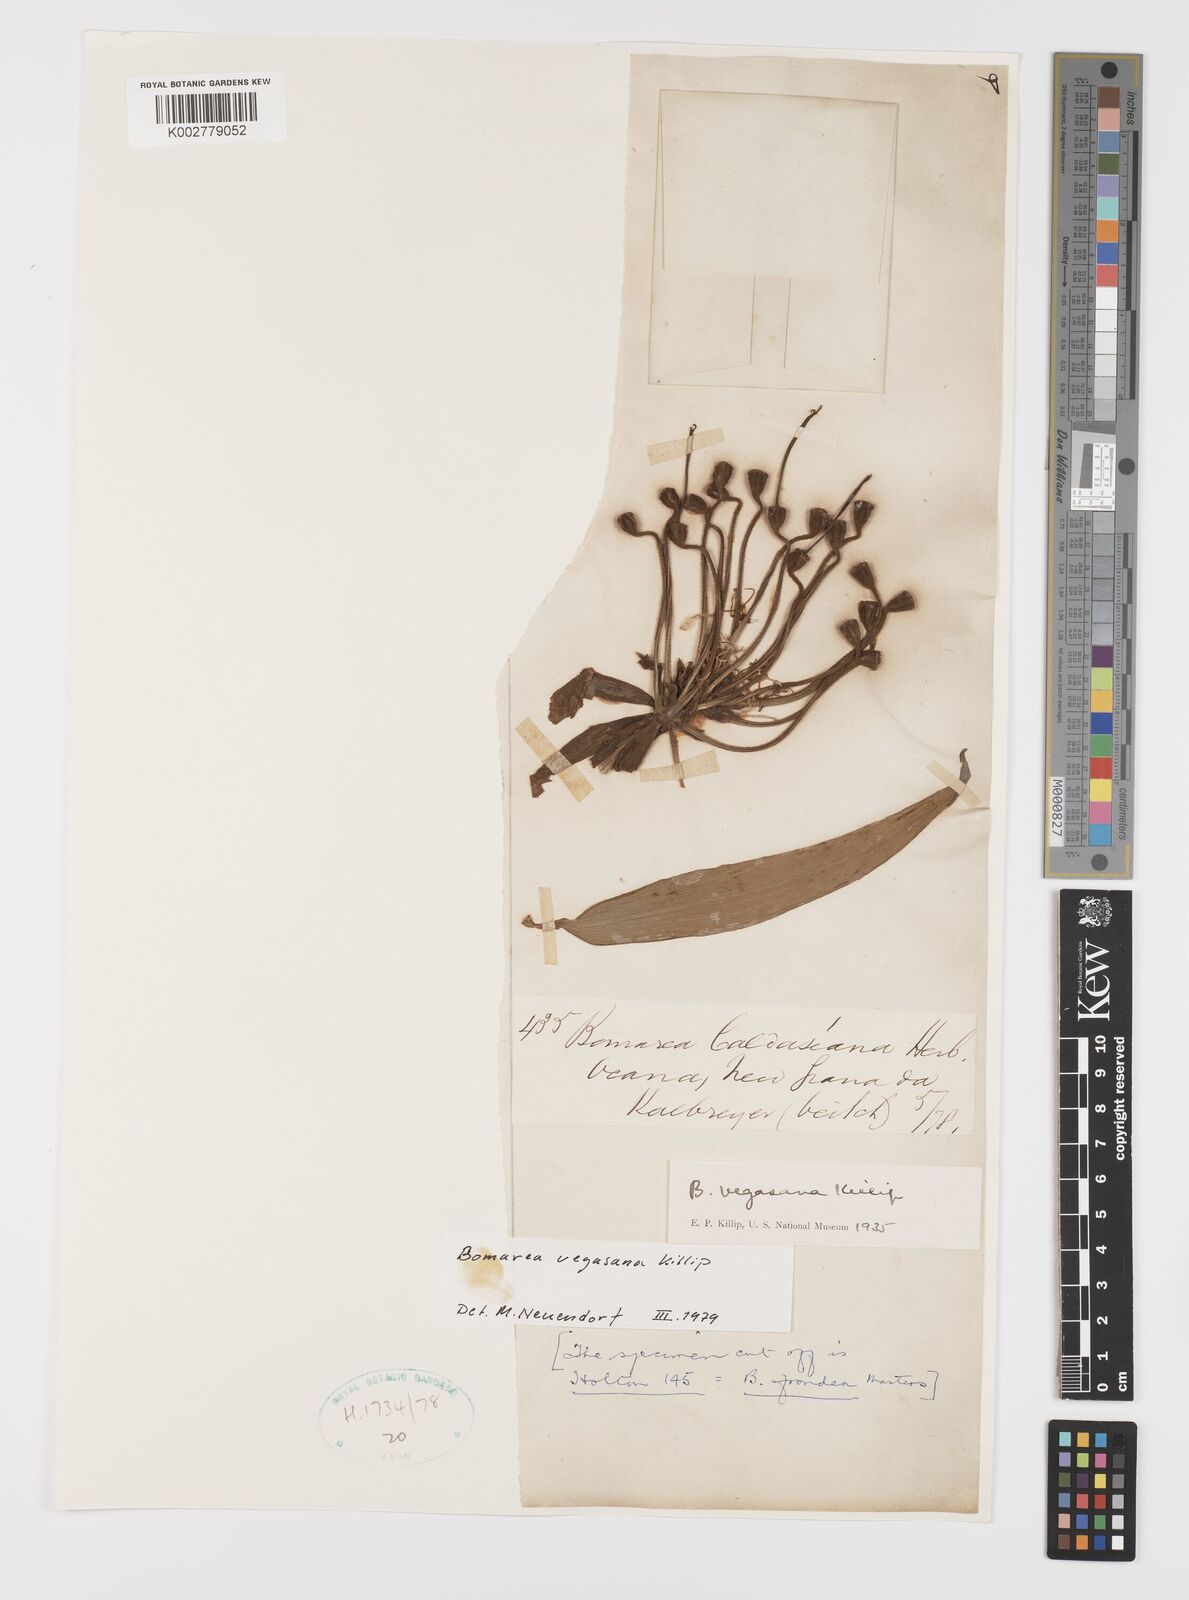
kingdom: Plantae
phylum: Tracheophyta
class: Liliopsida
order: Liliales
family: Alstroemeriaceae
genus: Bomarea
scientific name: Bomarea multiflora
